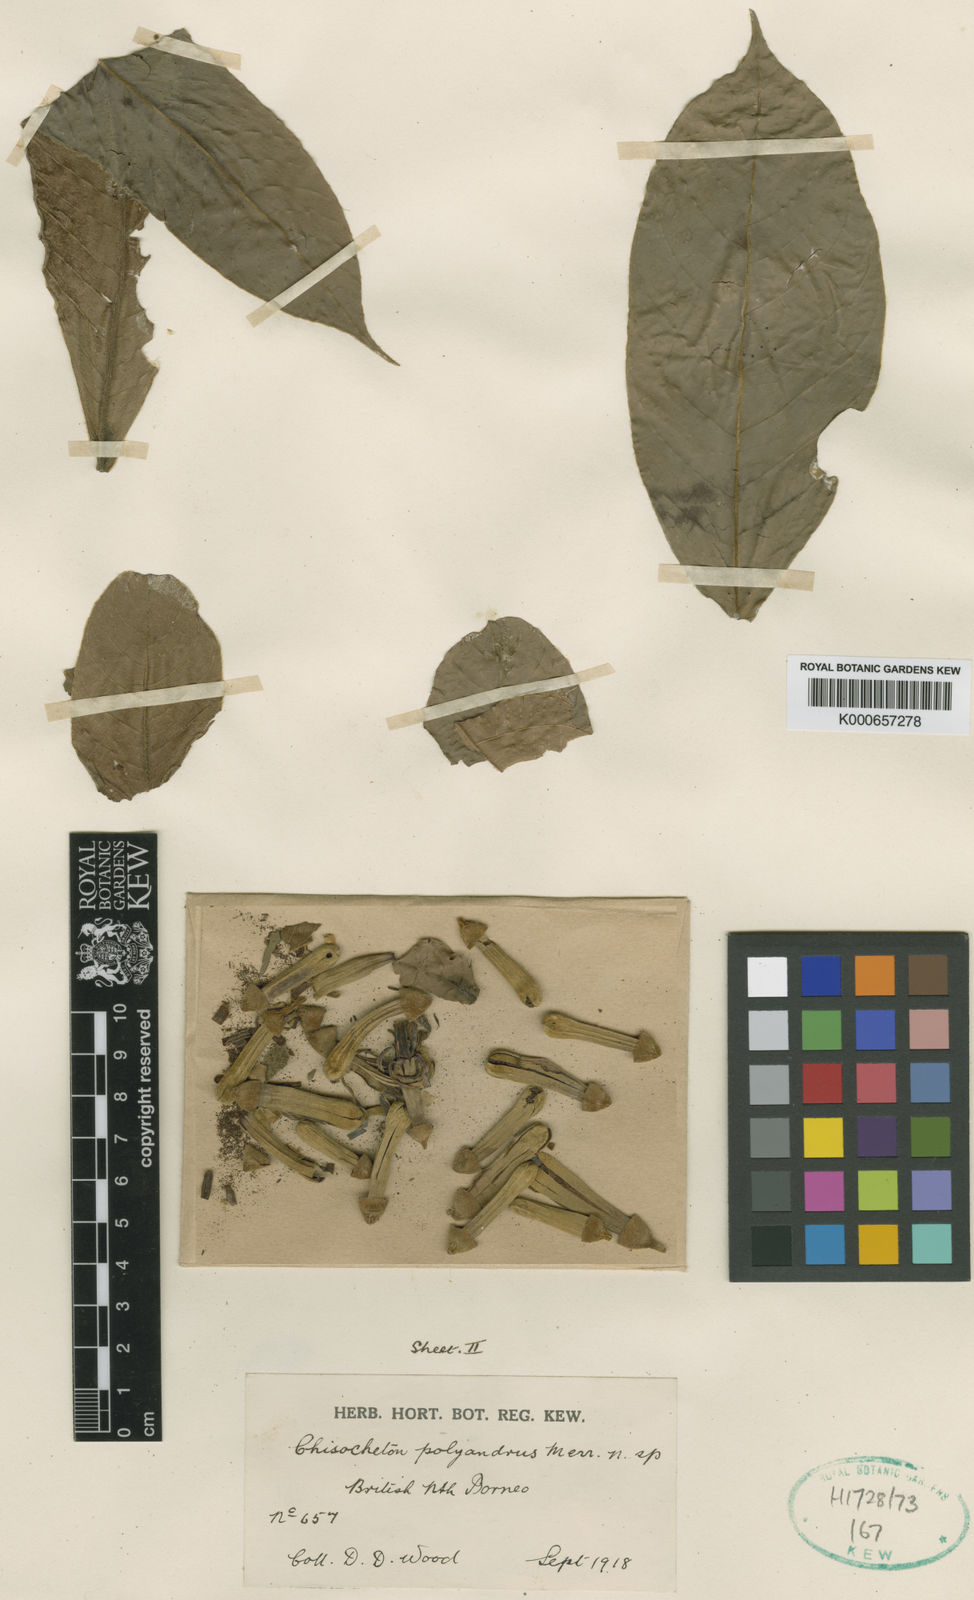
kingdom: Plantae
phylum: Tracheophyta
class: Magnoliopsida
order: Sapindales
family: Meliaceae
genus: Chisocheton
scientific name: Chisocheton polyandrus
